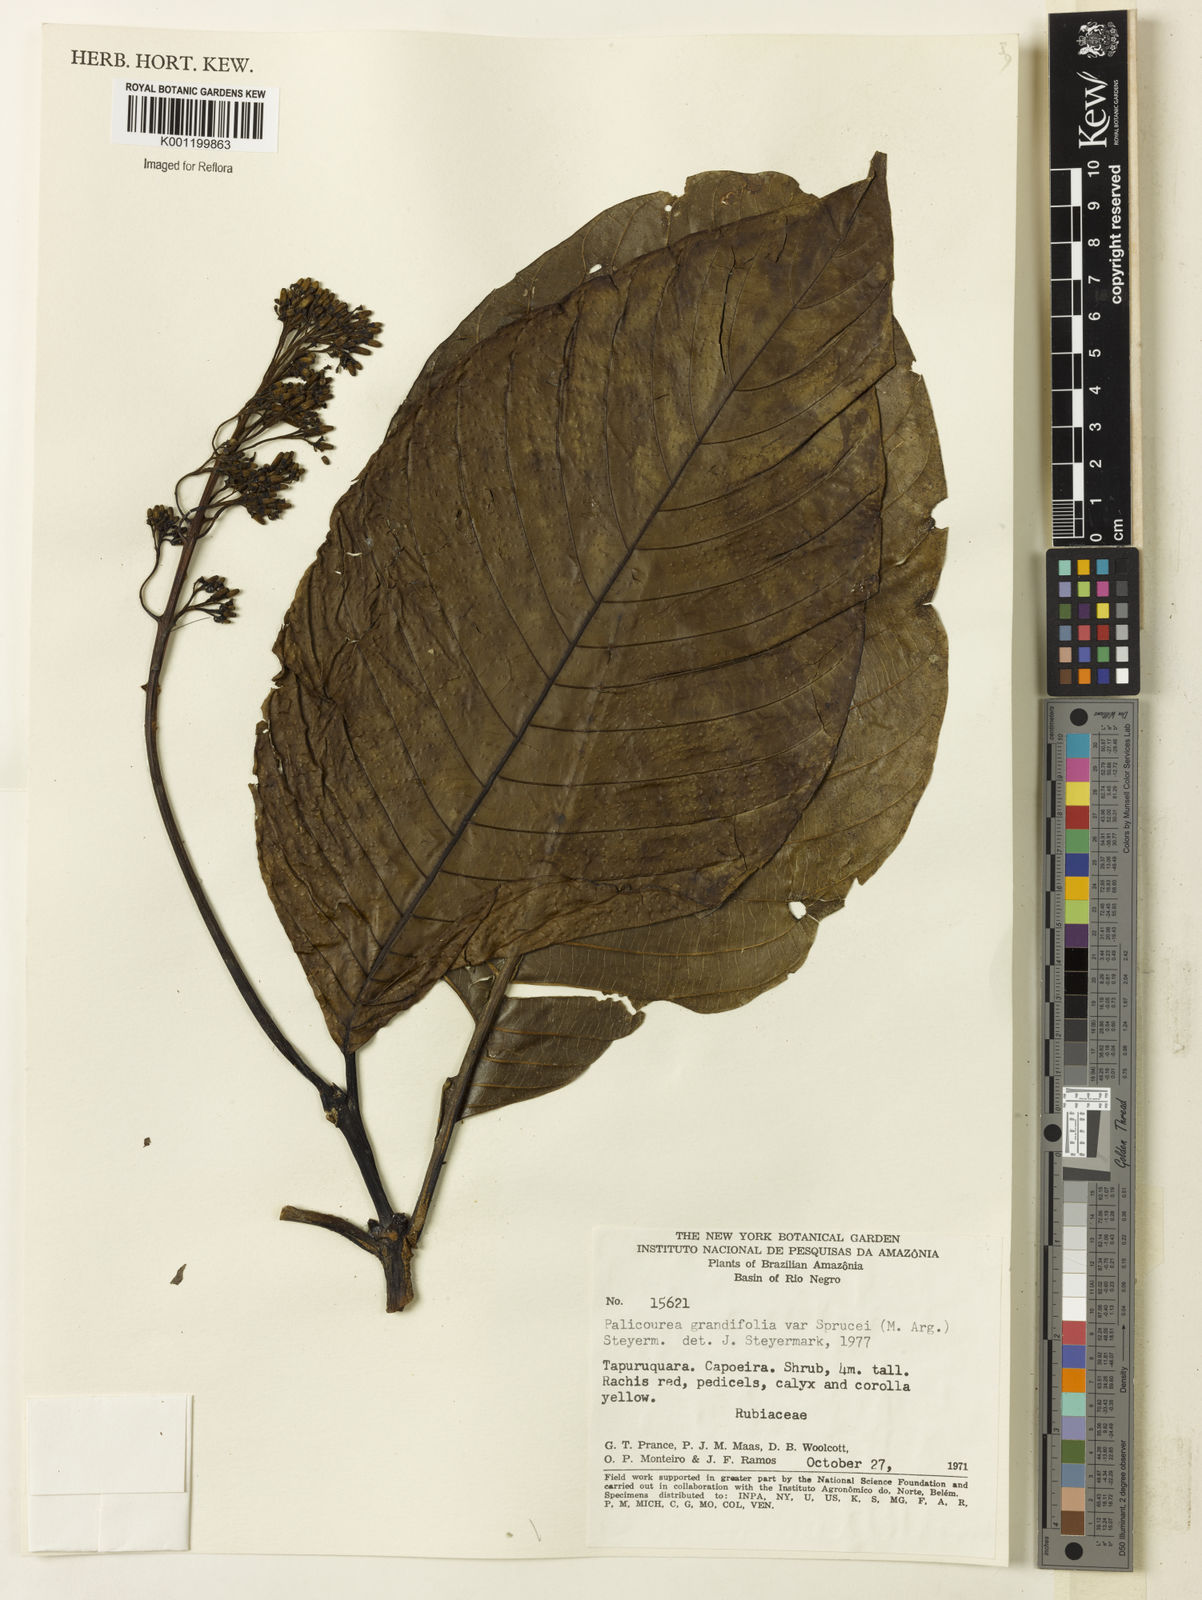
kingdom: Plantae
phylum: Tracheophyta
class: Magnoliopsida
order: Gentianales
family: Rubiaceae
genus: Palicourea
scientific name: Palicourea grandifolia
